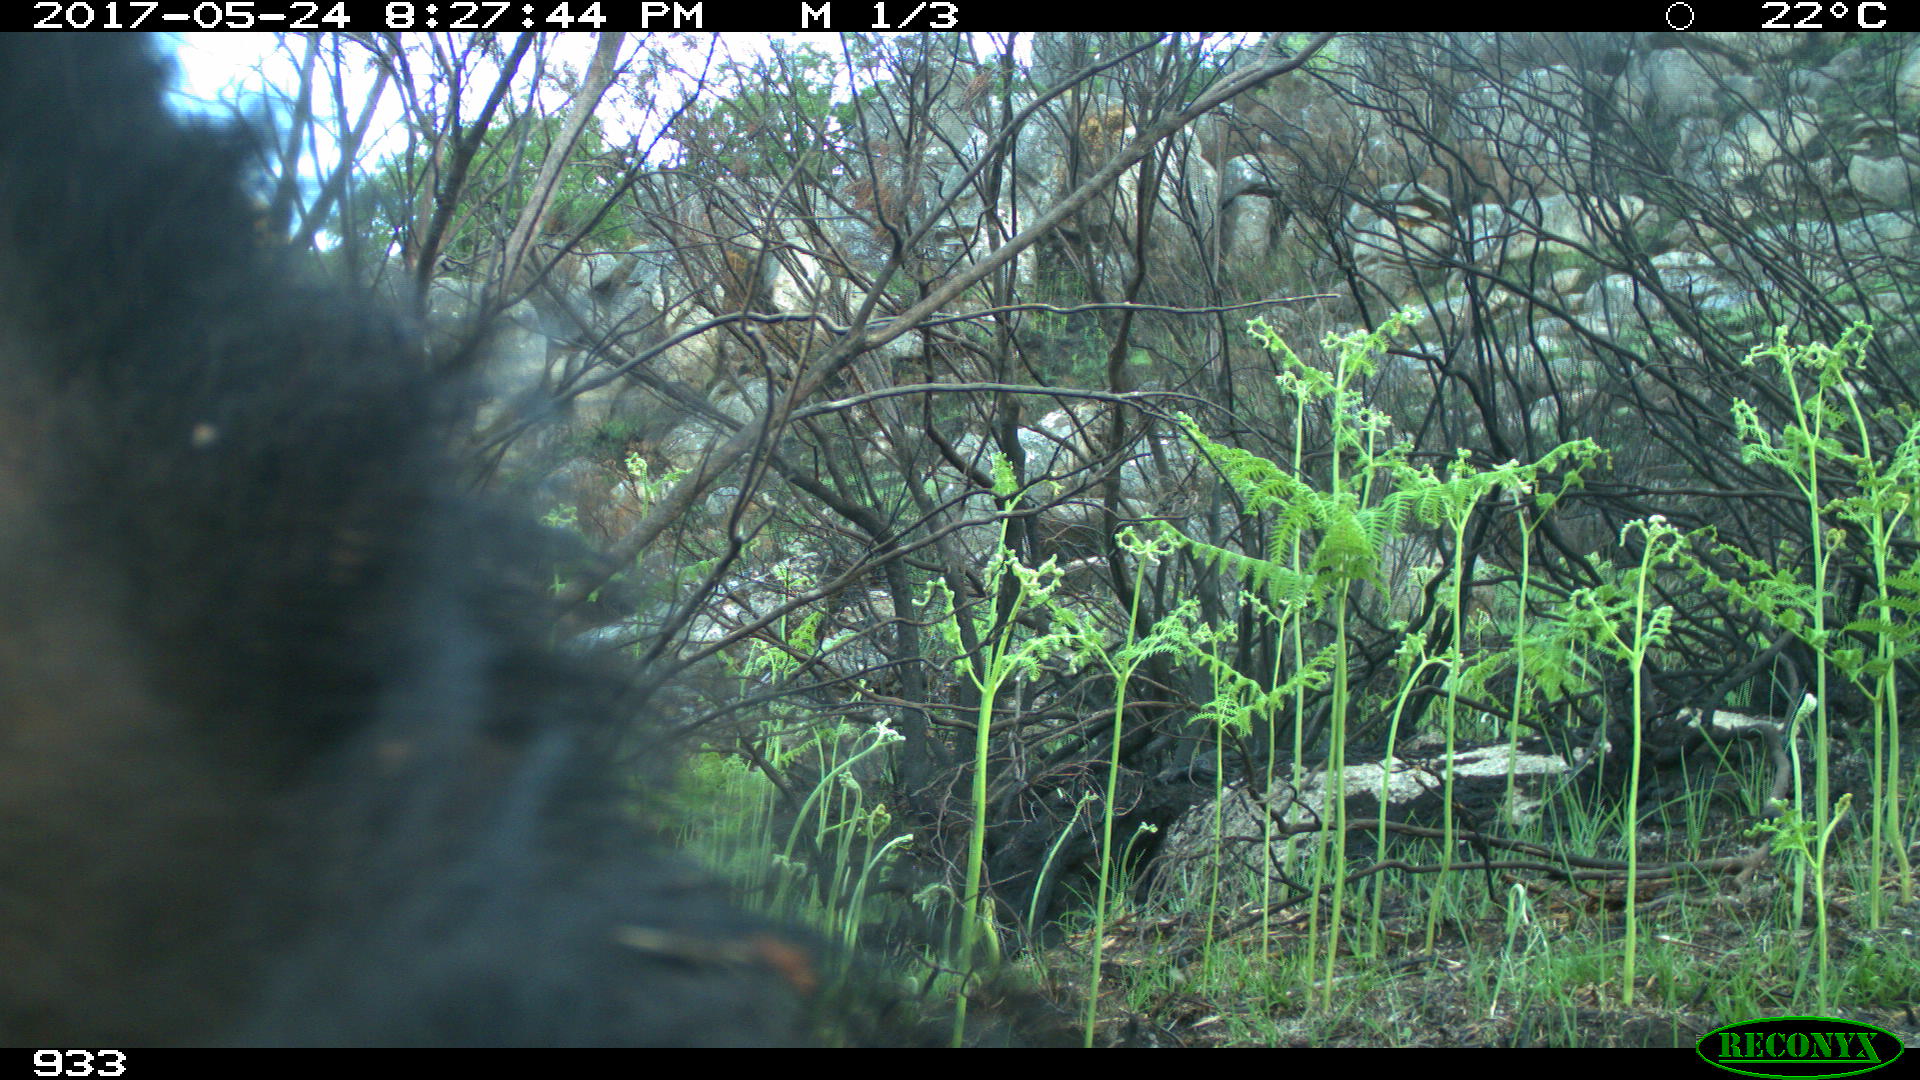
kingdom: Animalia
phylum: Chordata
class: Mammalia
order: Perissodactyla
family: Equidae
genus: Equus
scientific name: Equus caballus
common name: Horse
